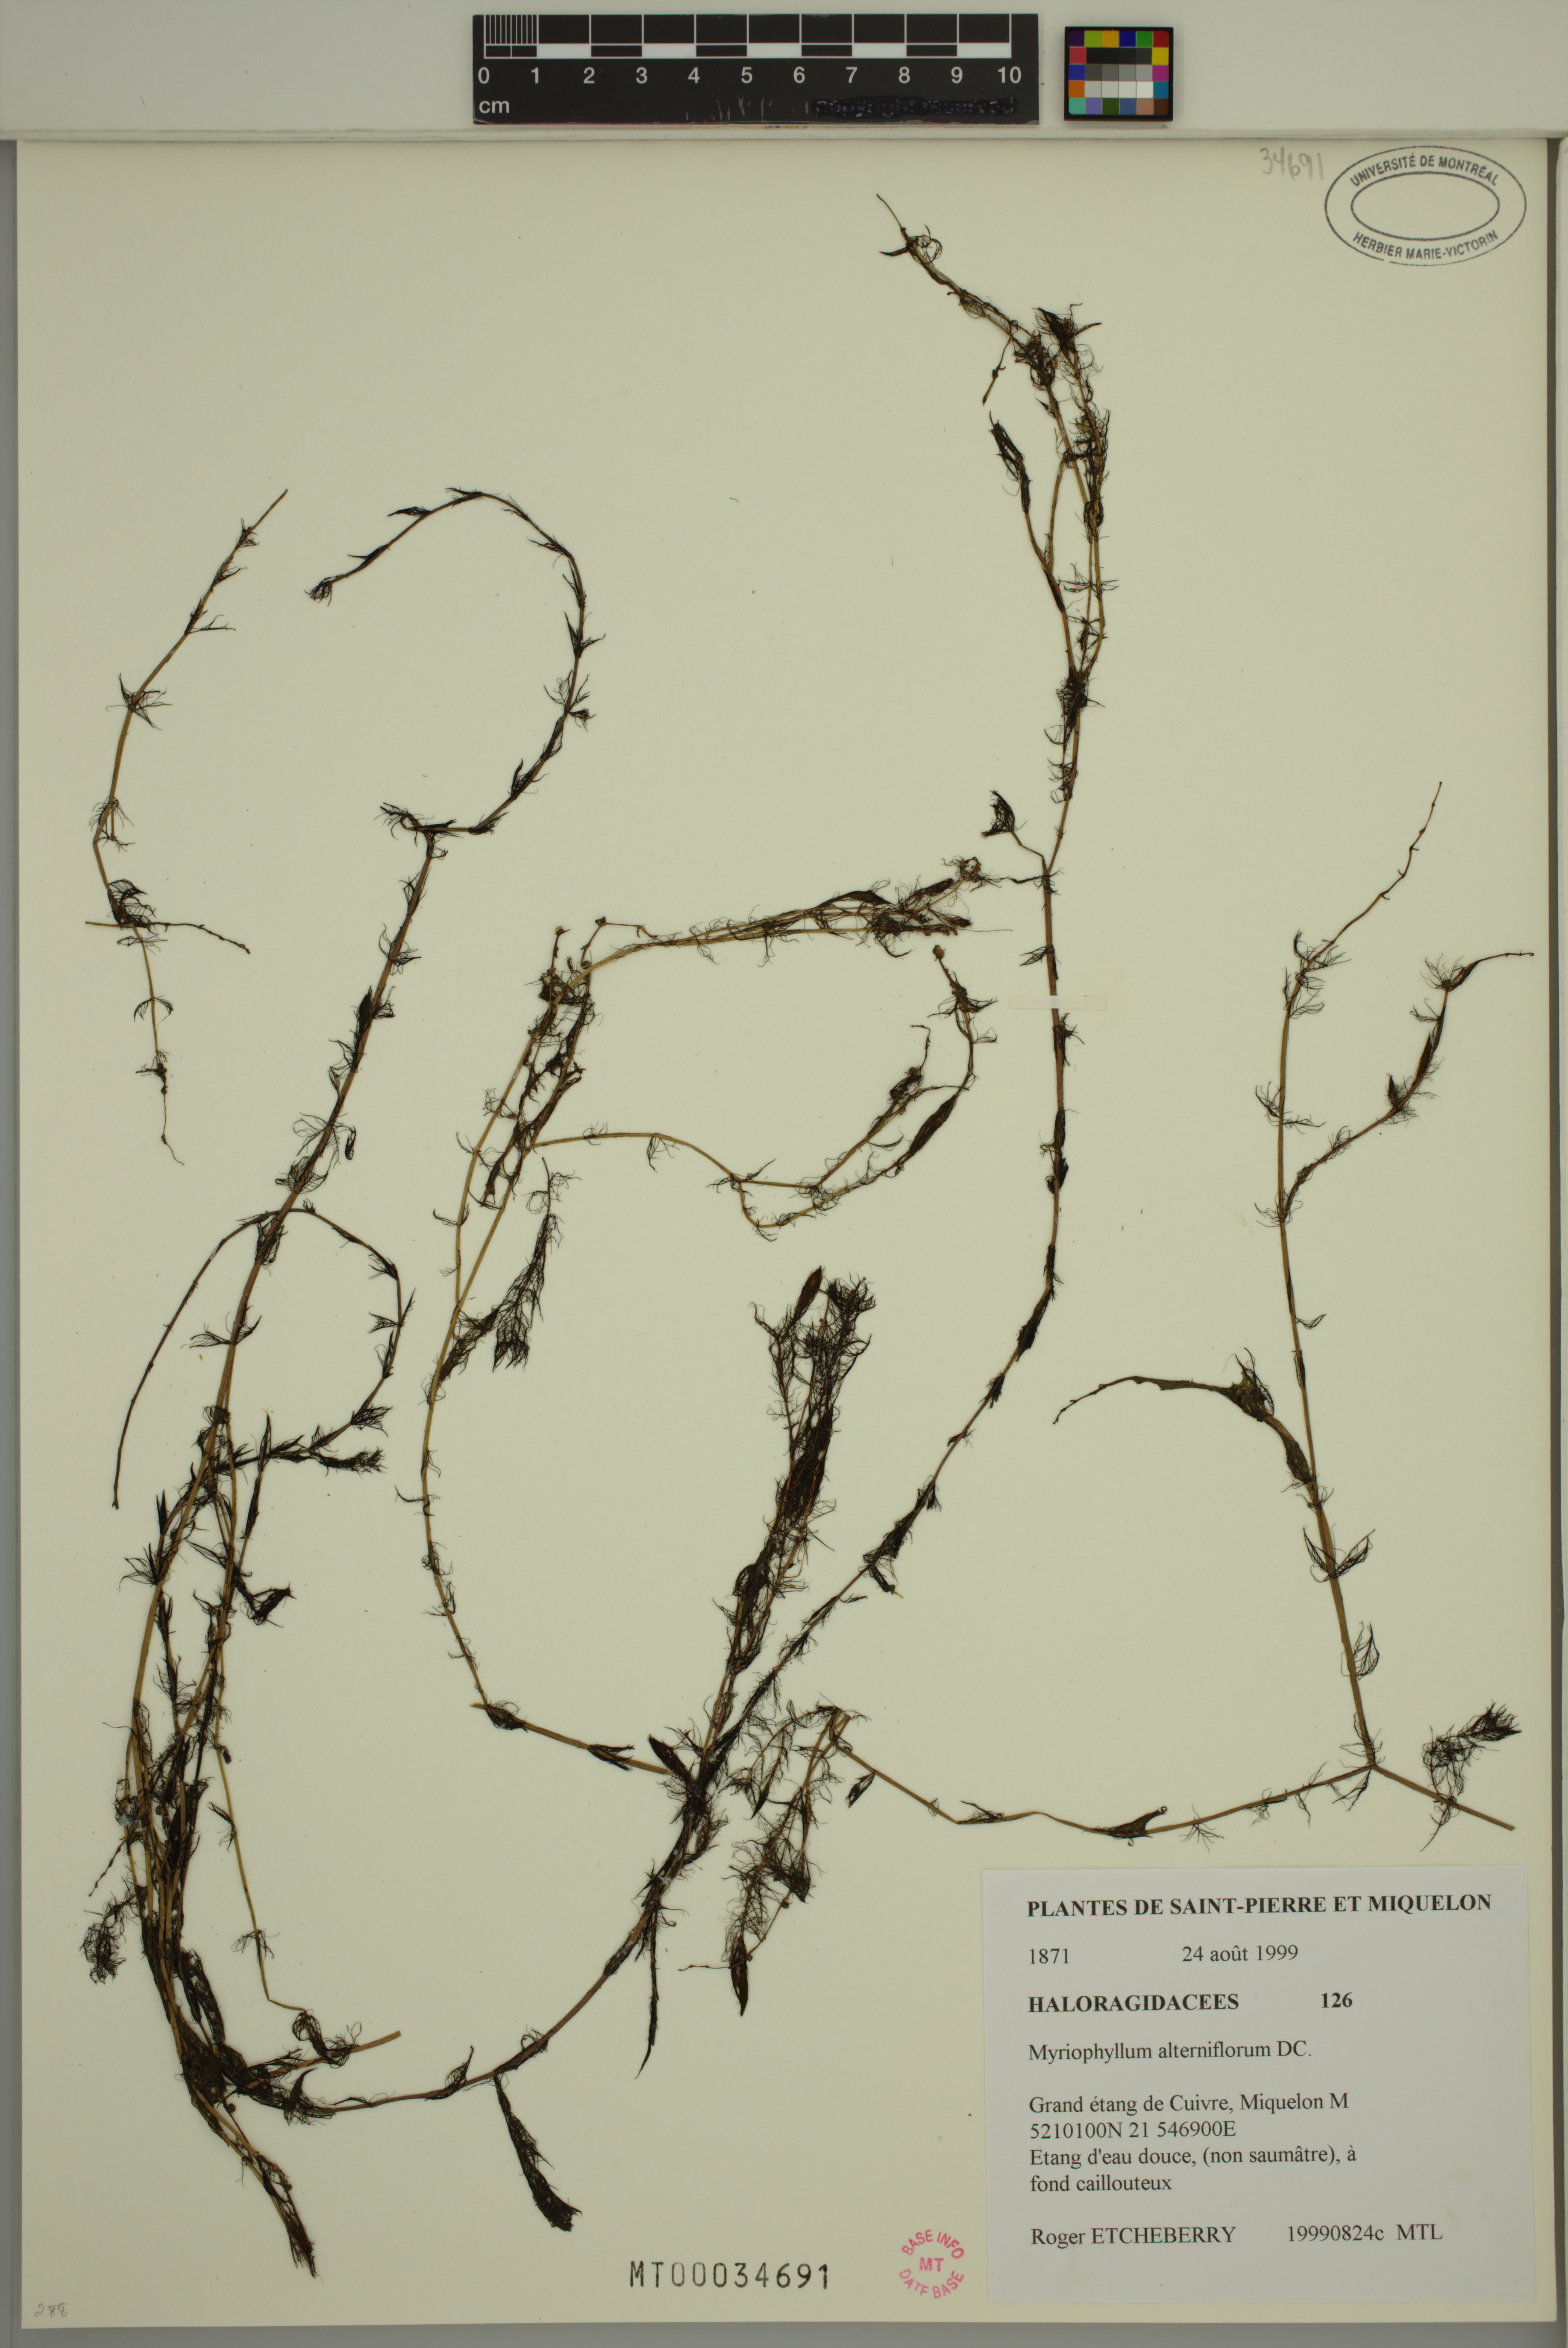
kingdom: Plantae
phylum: Tracheophyta
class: Magnoliopsida
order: Saxifragales
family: Haloragaceae
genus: Myriophyllum
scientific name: Myriophyllum alterniflorum
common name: Alternate water-milfoil
